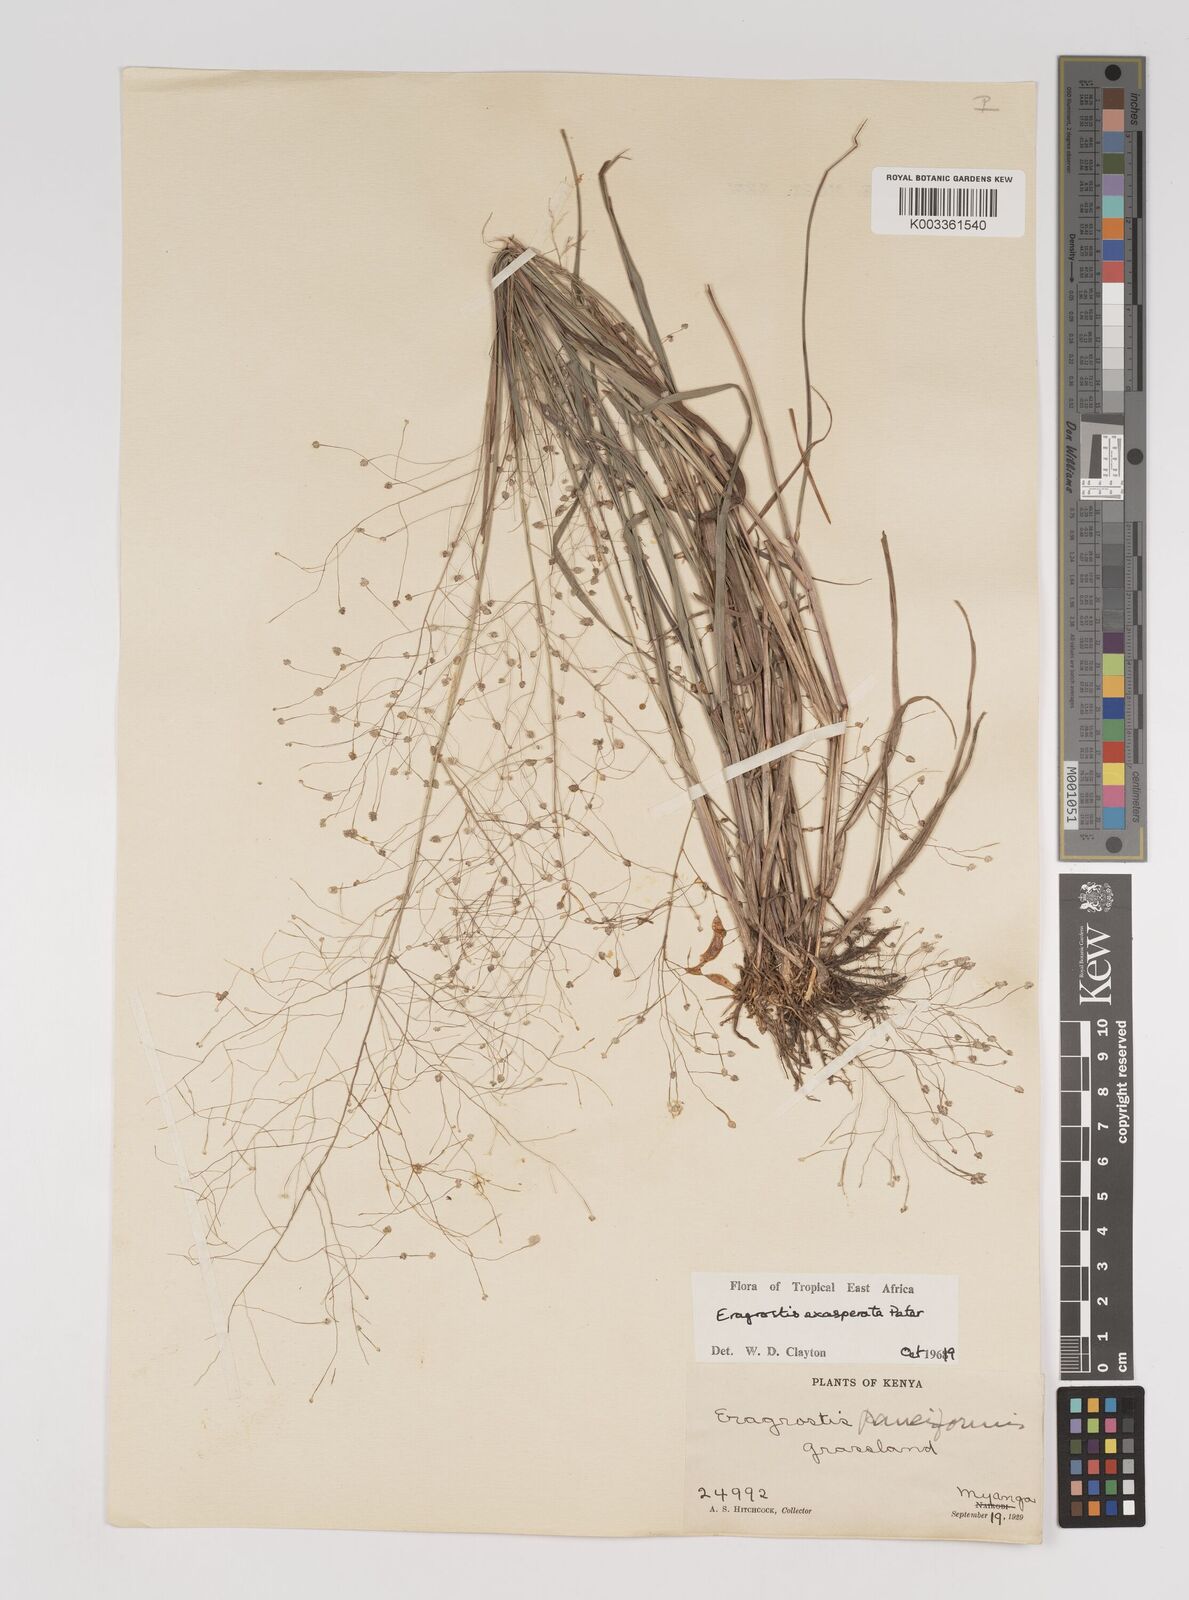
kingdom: Plantae
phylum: Tracheophyta
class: Liliopsida
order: Poales
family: Poaceae
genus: Eragrostis
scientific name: Eragrostis exasperata
